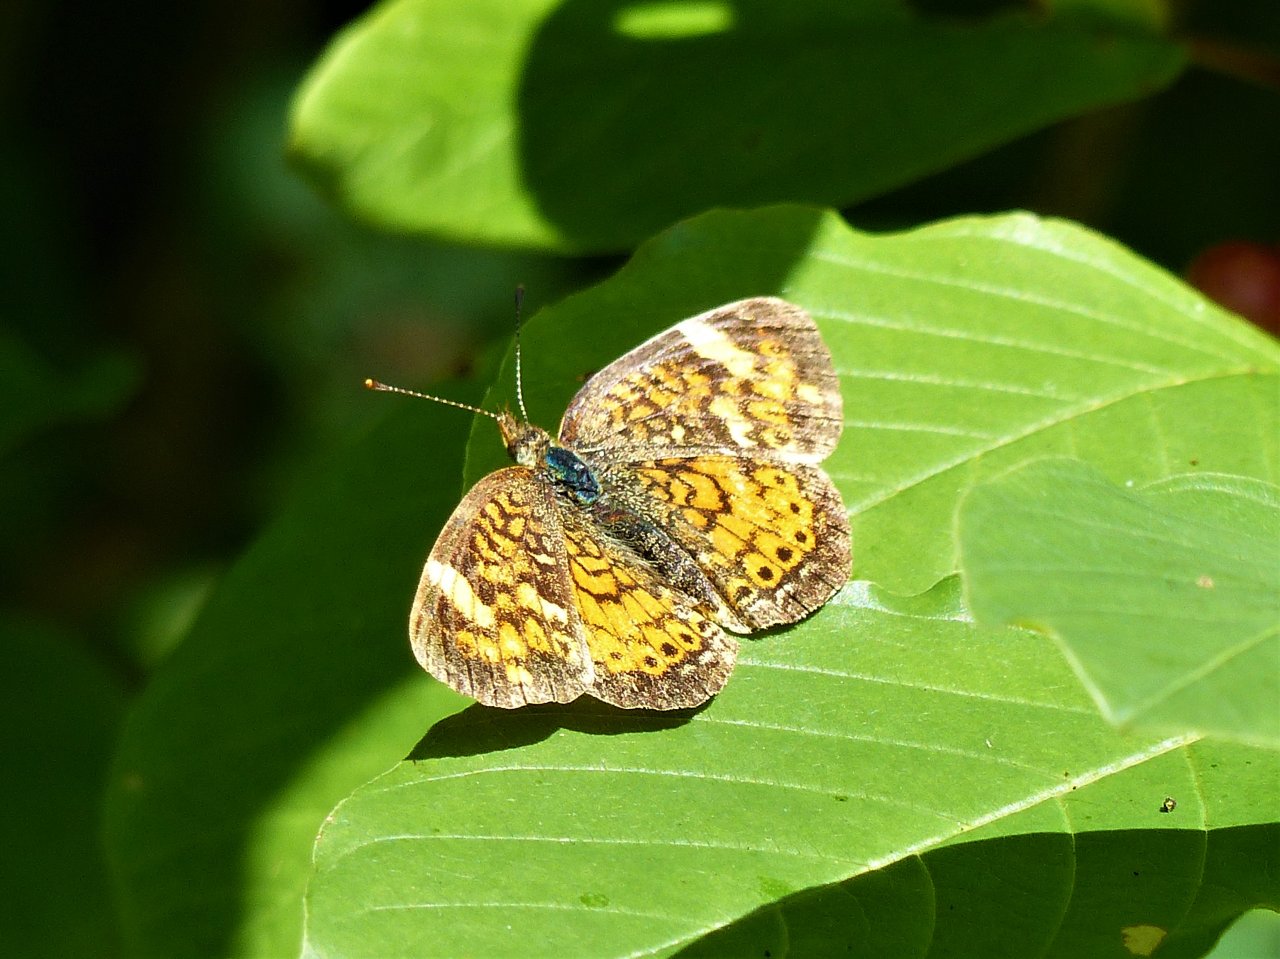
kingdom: Animalia
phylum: Arthropoda
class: Insecta
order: Lepidoptera
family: Nymphalidae
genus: Phyciodes
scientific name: Phyciodes tharos
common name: Pearl Crescent
